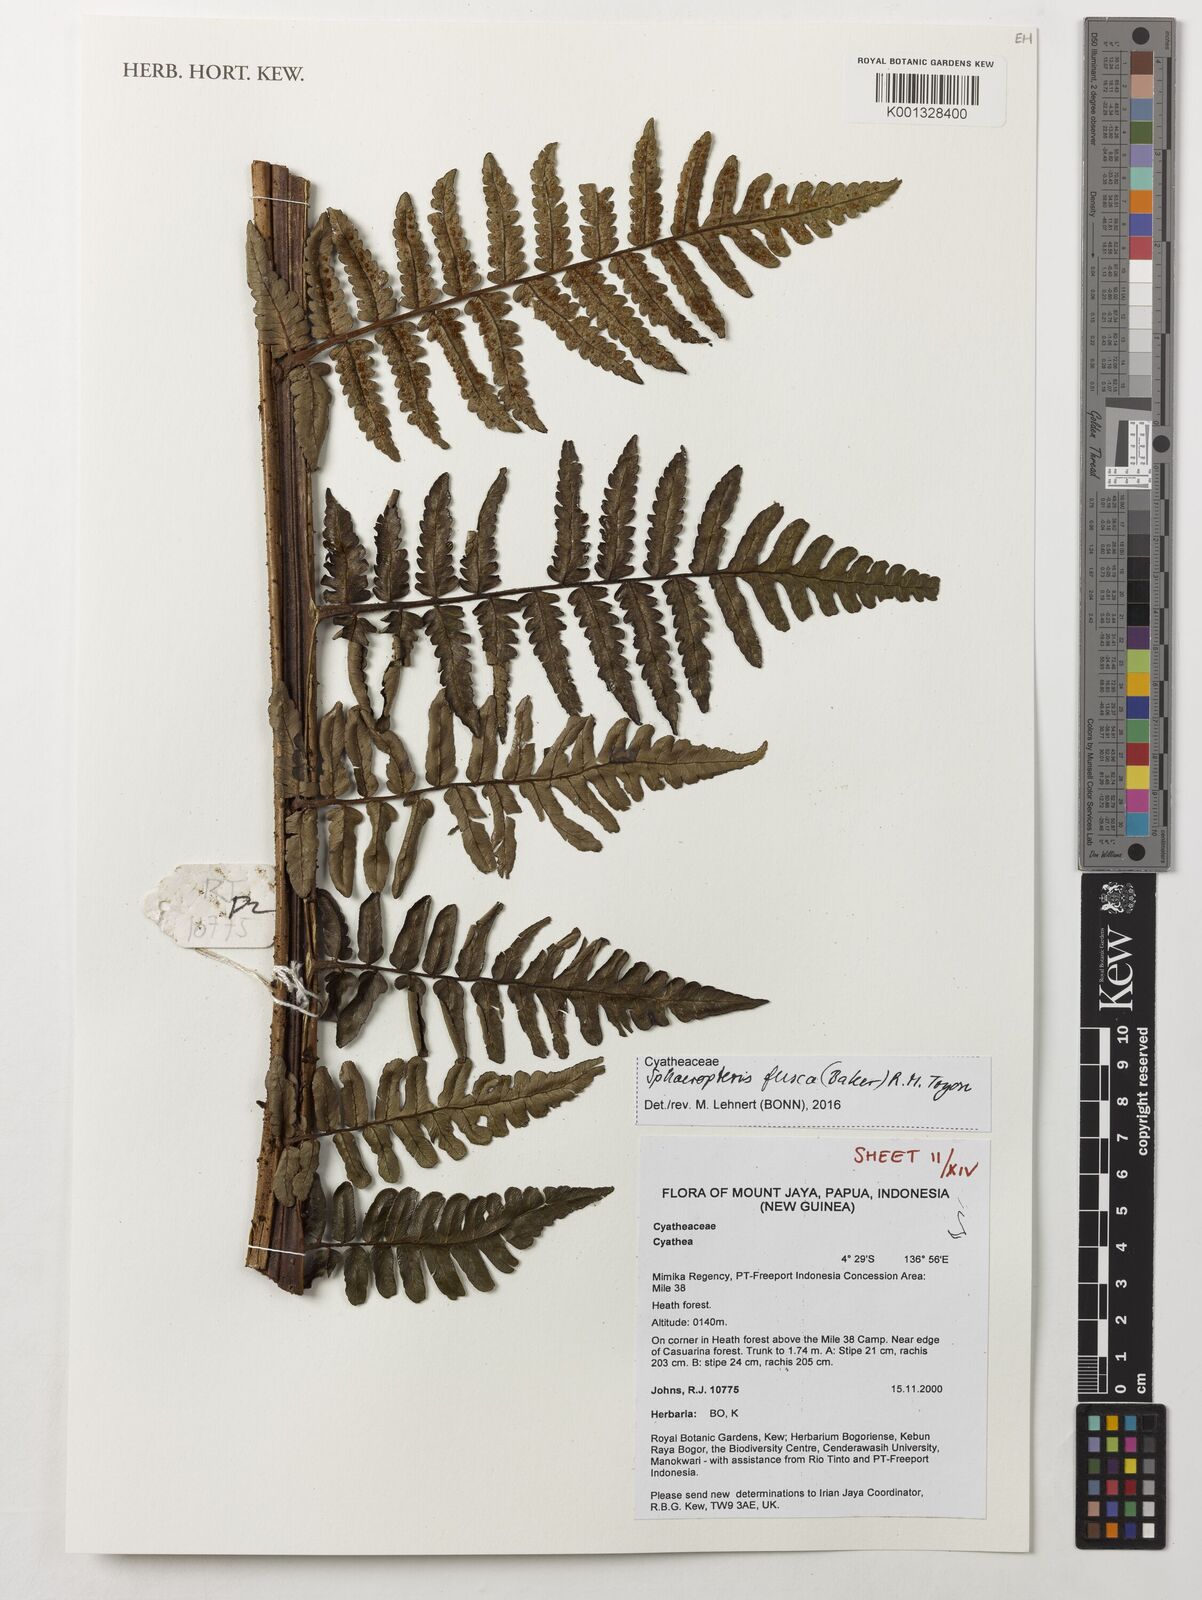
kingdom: Plantae
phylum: Tracheophyta
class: Polypodiopsida
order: Cyatheales
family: Cyatheaceae
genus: Sphaeropteris
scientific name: Sphaeropteris fusca
